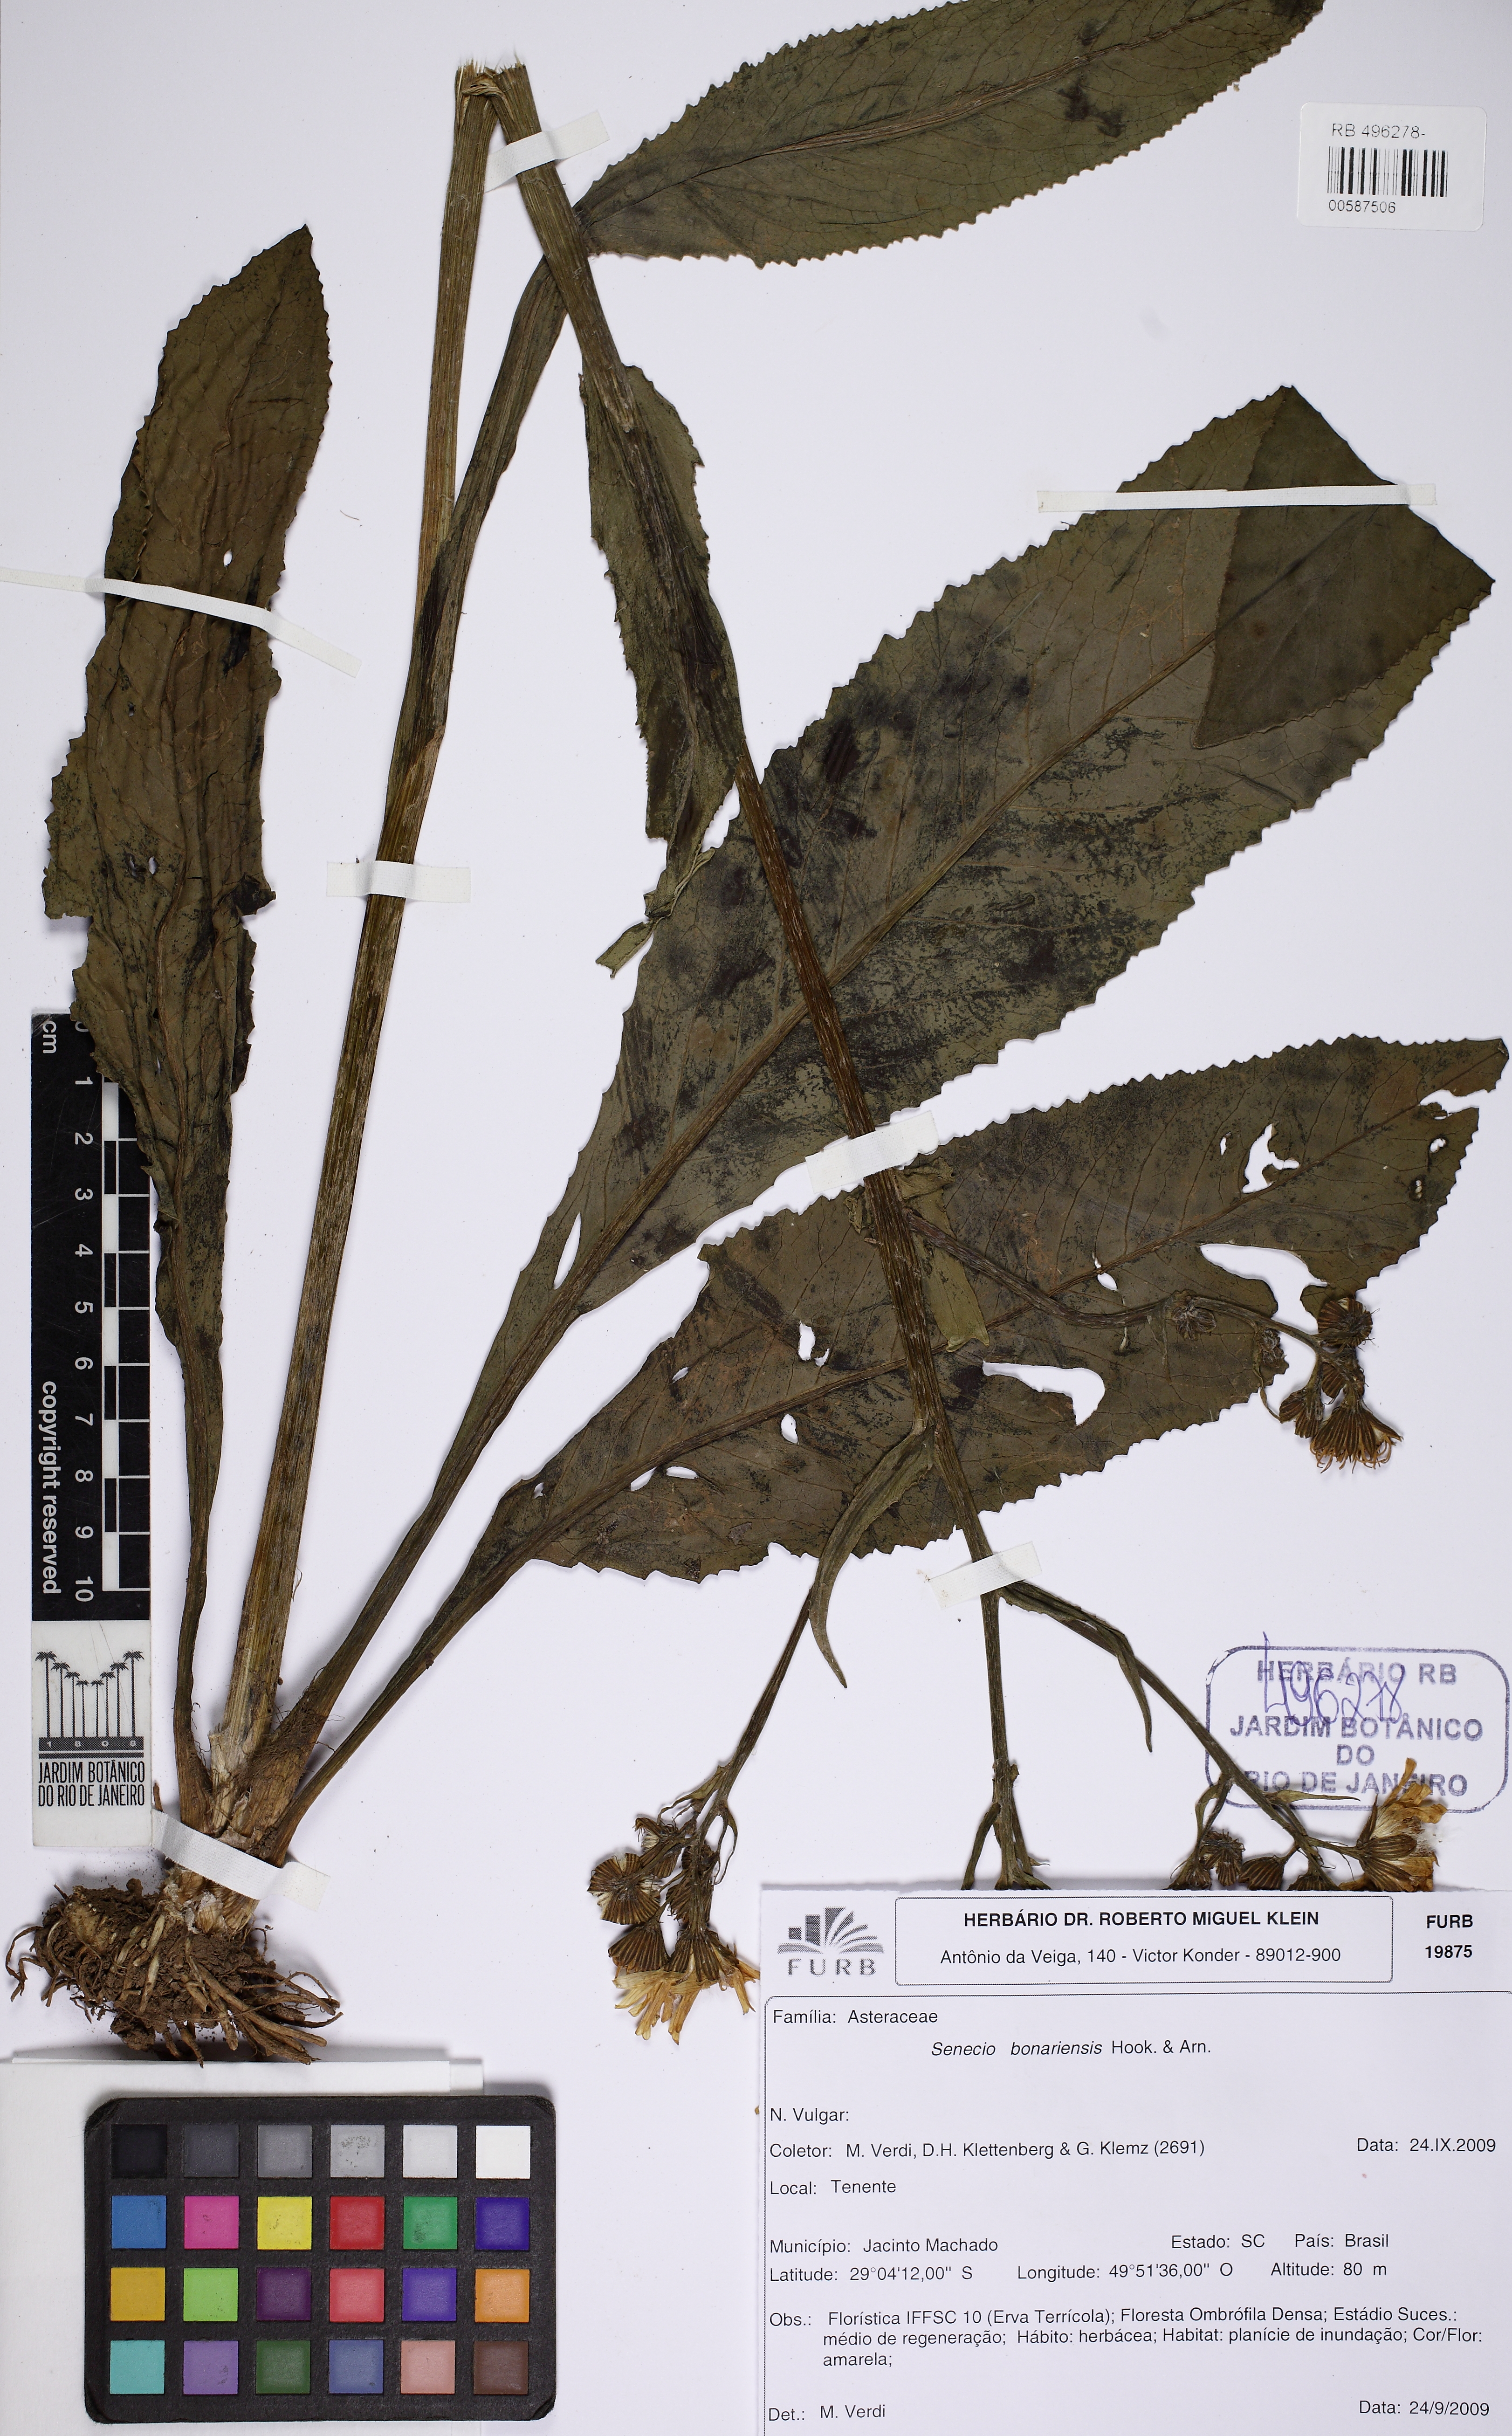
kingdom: Plantae
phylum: Tracheophyta
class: Magnoliopsida
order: Asterales
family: Asteraceae
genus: Senecio
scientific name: Senecio bonariensis
